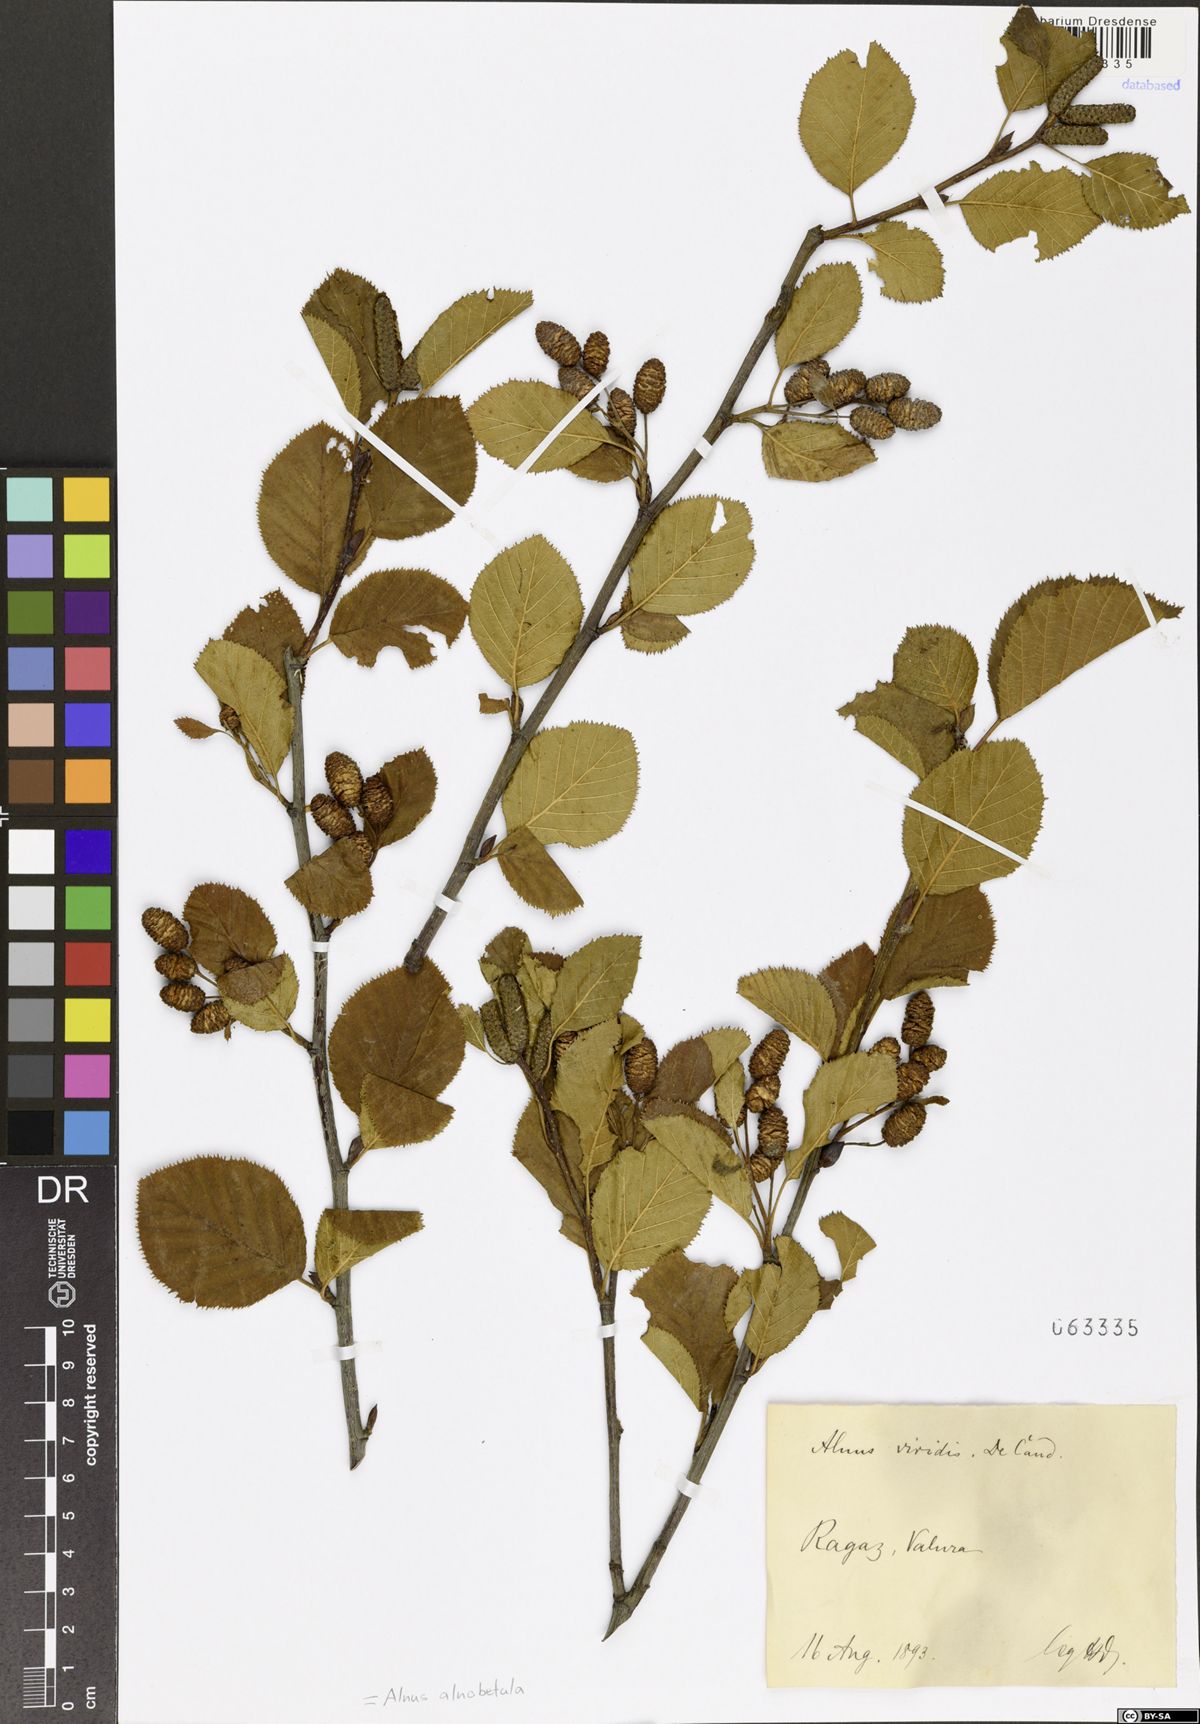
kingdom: Plantae
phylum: Tracheophyta
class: Magnoliopsida
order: Fagales
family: Betulaceae
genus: Alnus
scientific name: Alnus alnobetula
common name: Green alder
